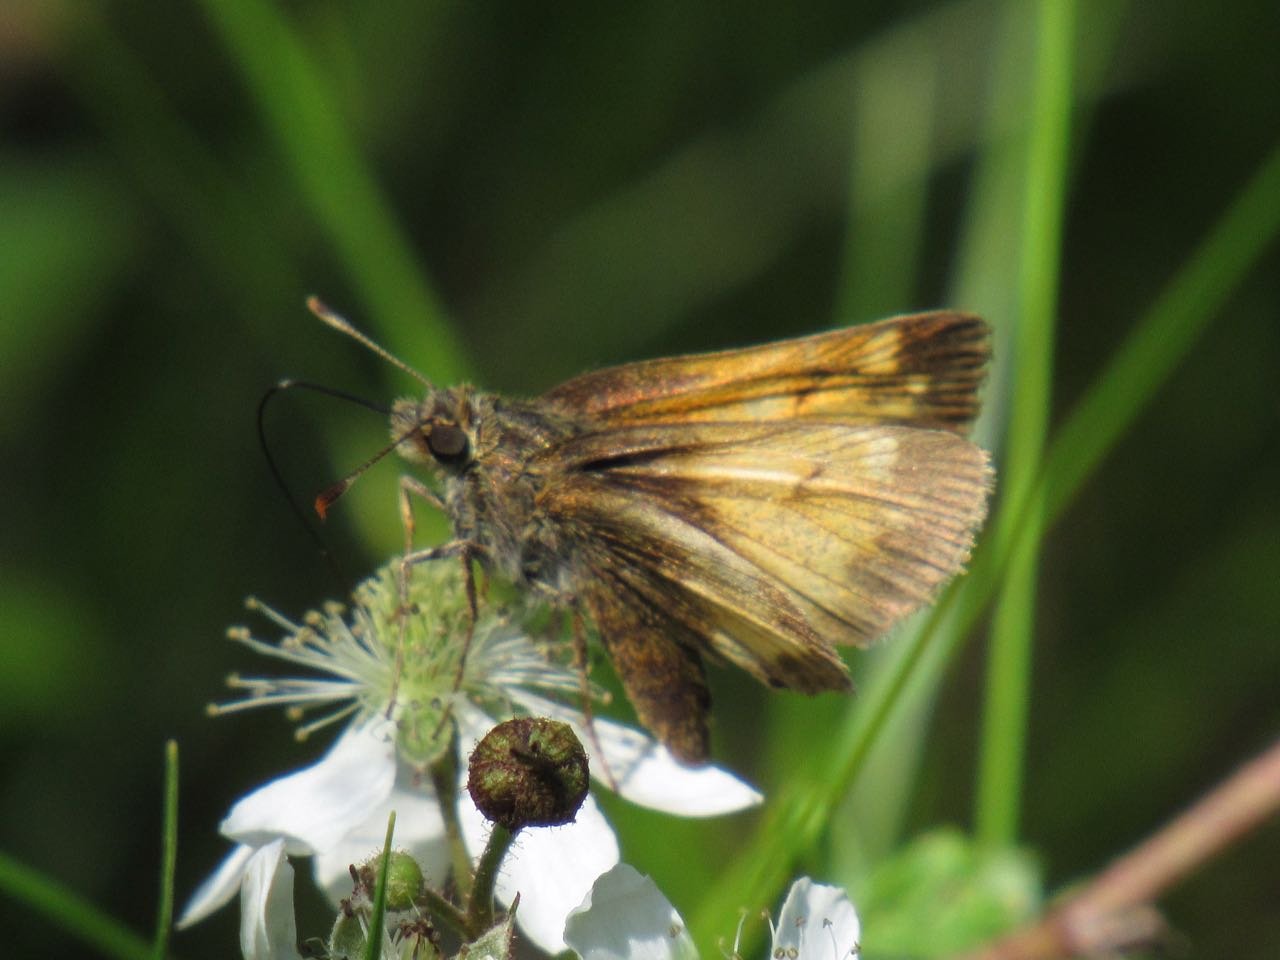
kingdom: Animalia
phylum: Arthropoda
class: Insecta
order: Lepidoptera
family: Hesperiidae
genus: Lon
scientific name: Lon hobomok
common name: Hobomok Skipper
